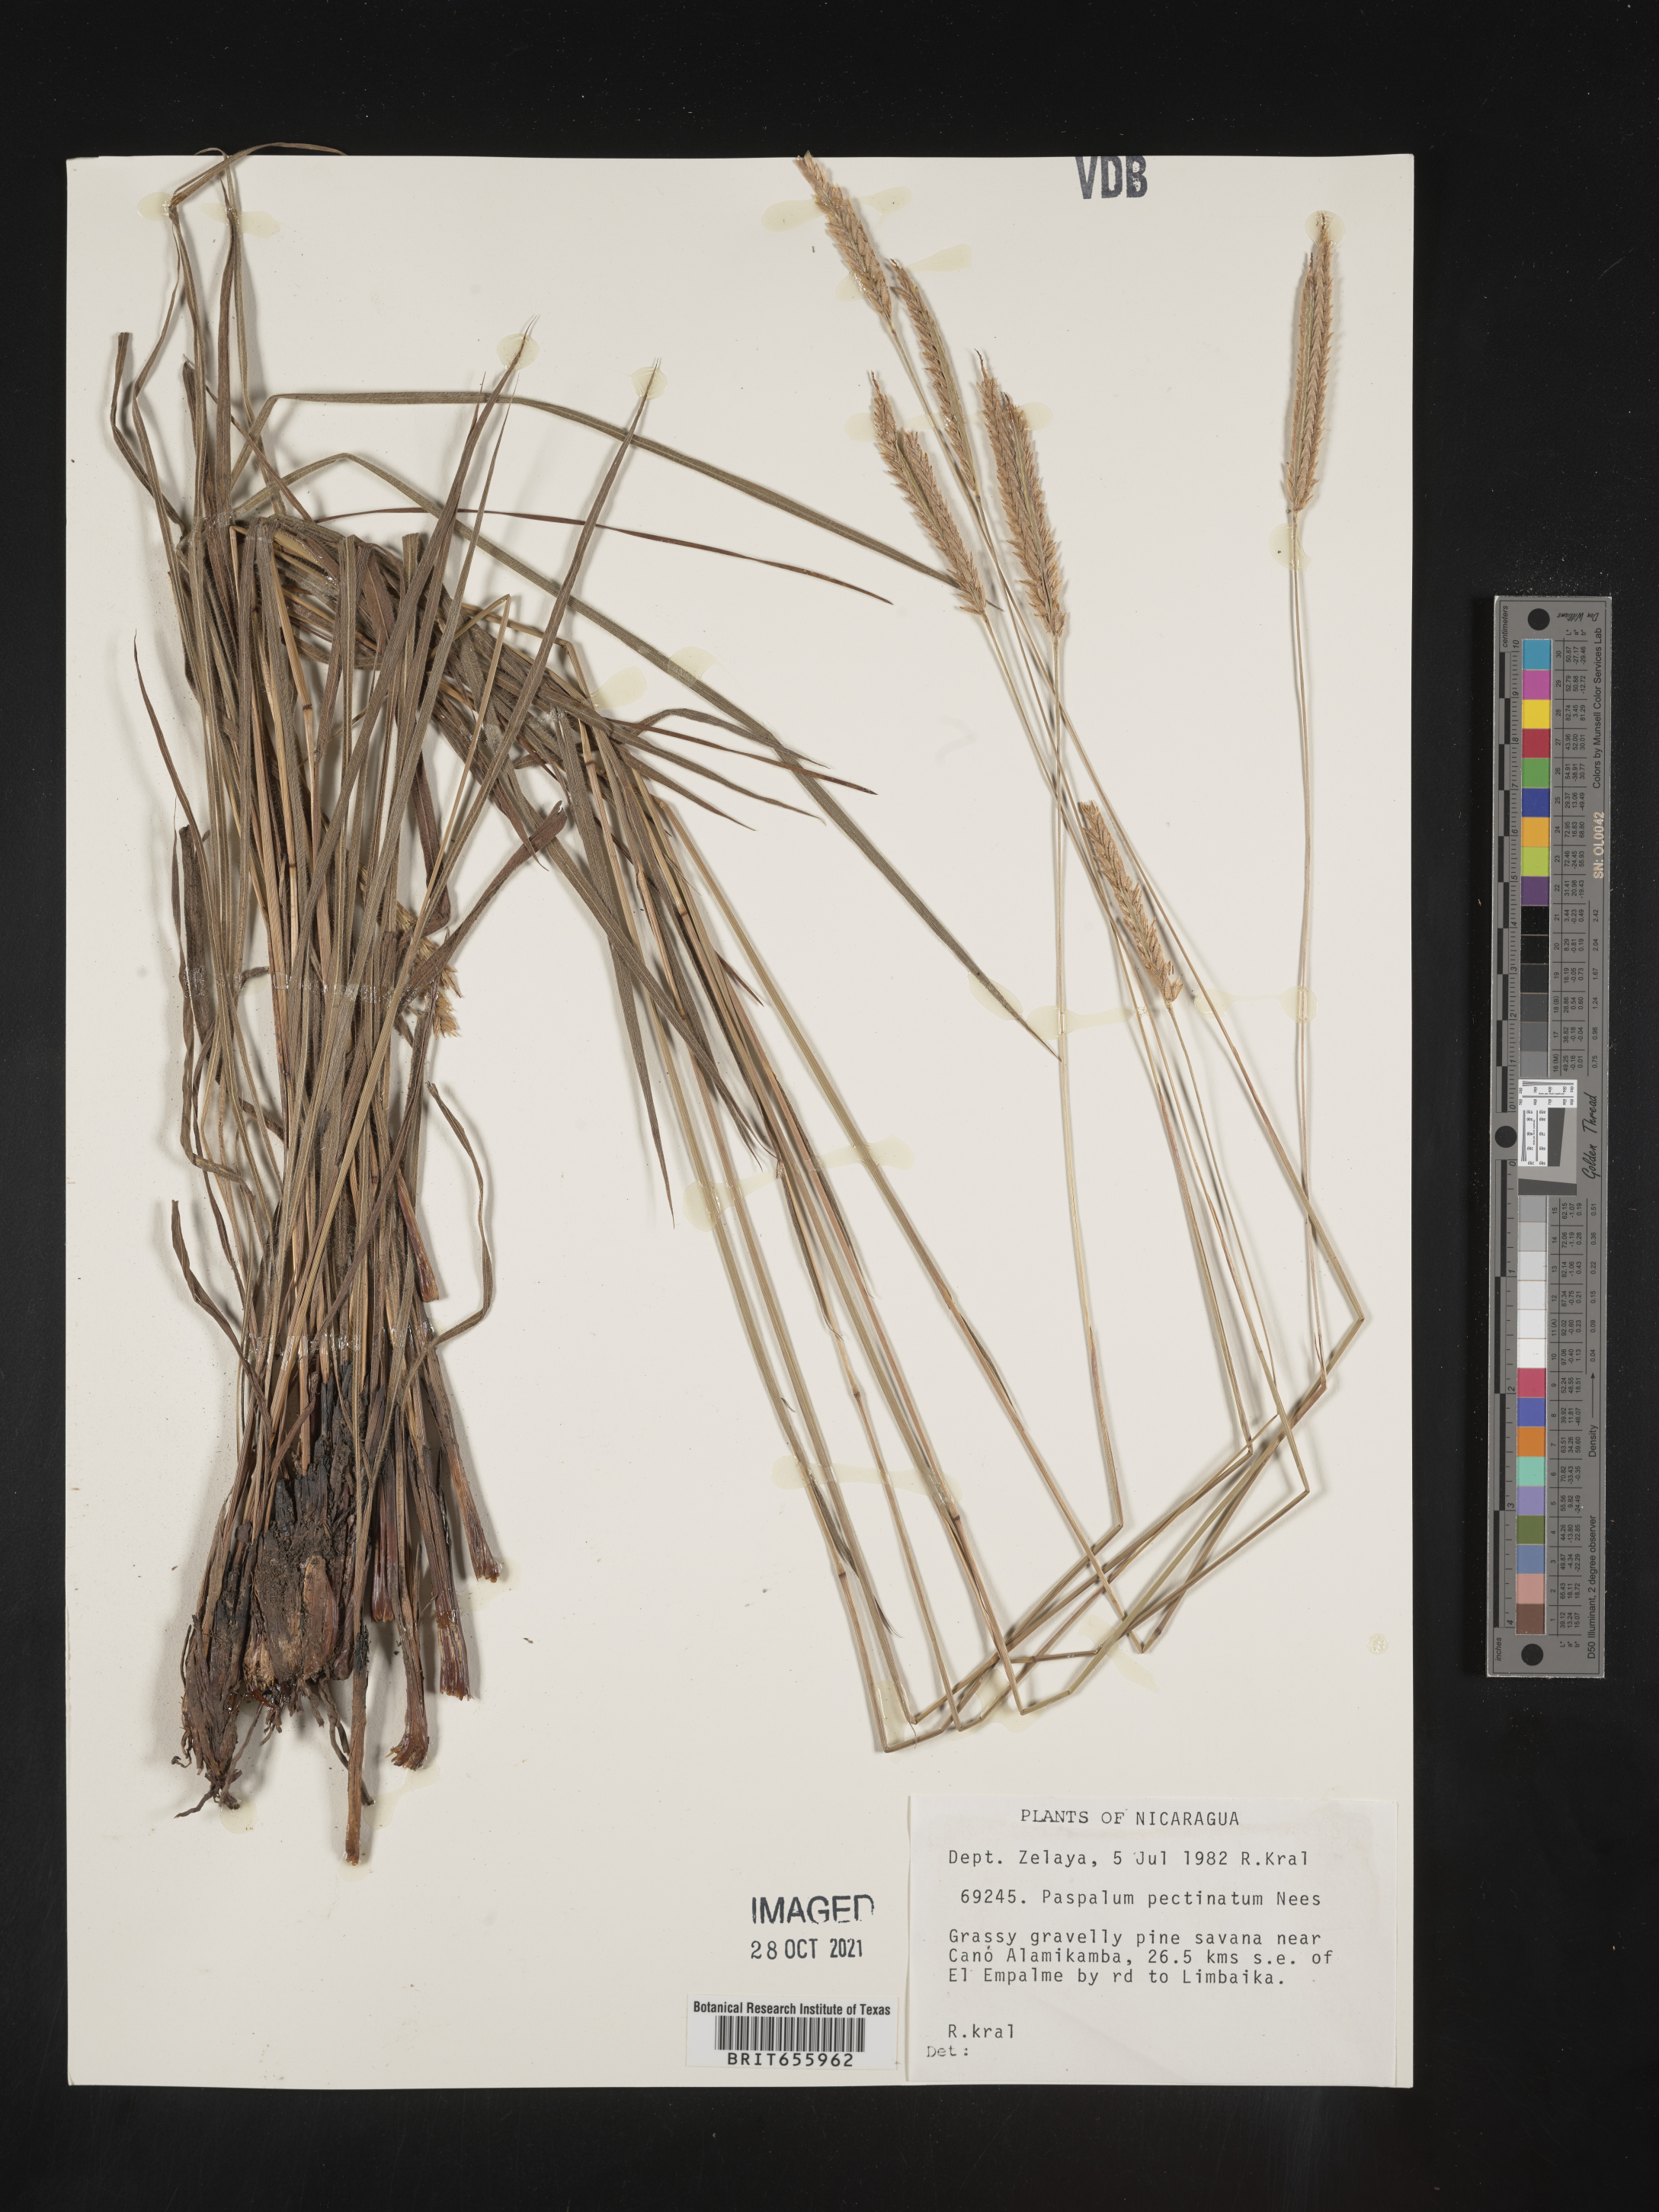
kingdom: Plantae
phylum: Tracheophyta
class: Liliopsida
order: Poales
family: Poaceae
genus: Paspalum
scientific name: Paspalum
